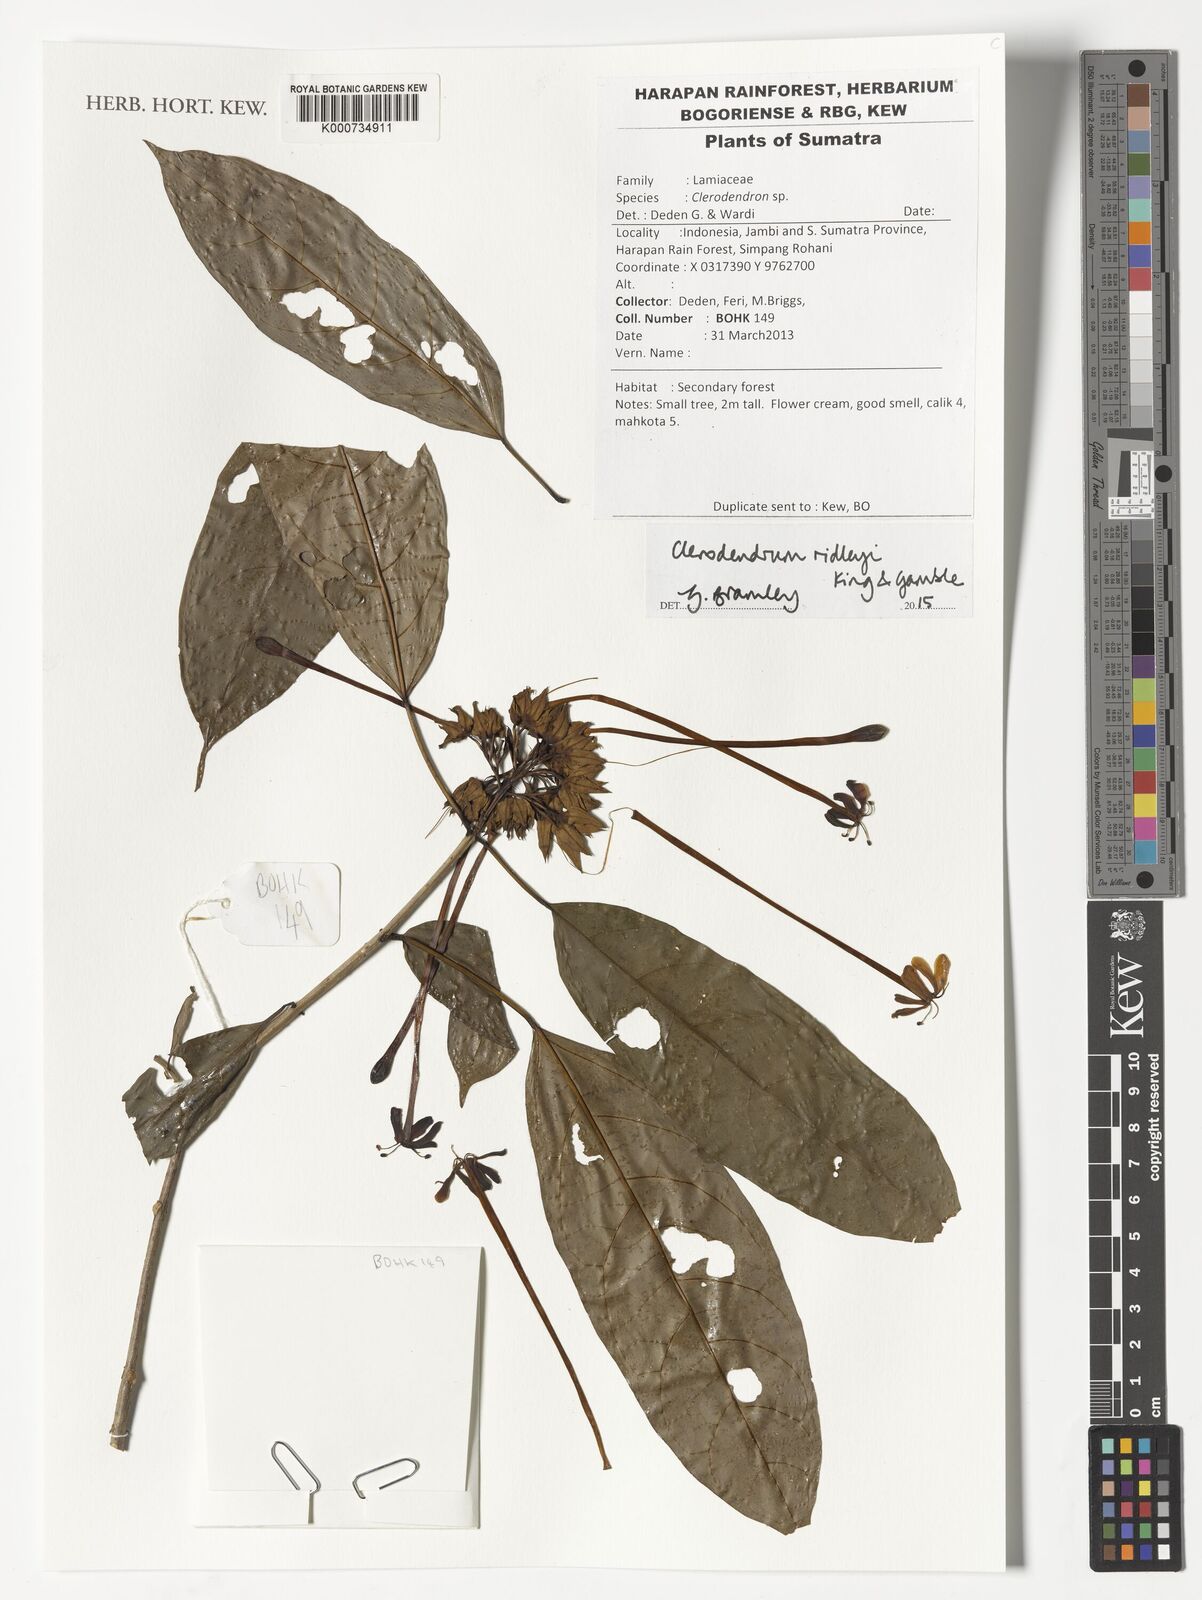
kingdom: Plantae
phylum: Tracheophyta
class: Magnoliopsida
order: Lamiales
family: Lamiaceae
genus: Clerodendrum
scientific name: Clerodendrum ridleyi
